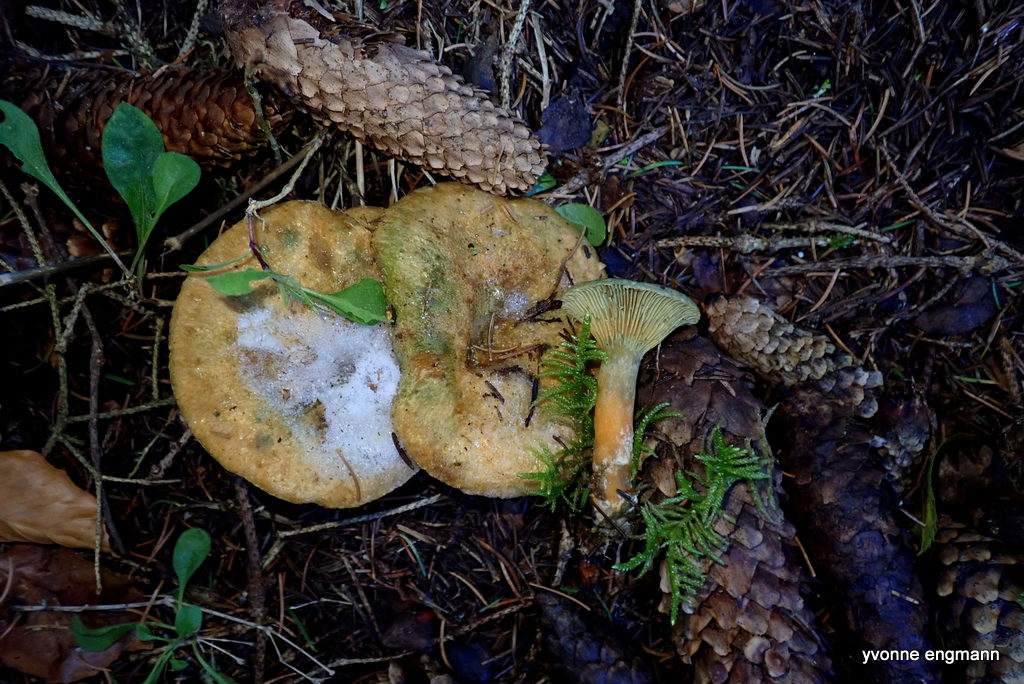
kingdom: Fungi
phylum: Basidiomycota
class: Agaricomycetes
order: Russulales
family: Russulaceae
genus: Lactarius
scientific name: Lactarius deterrimus
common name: gran-mælkehat
